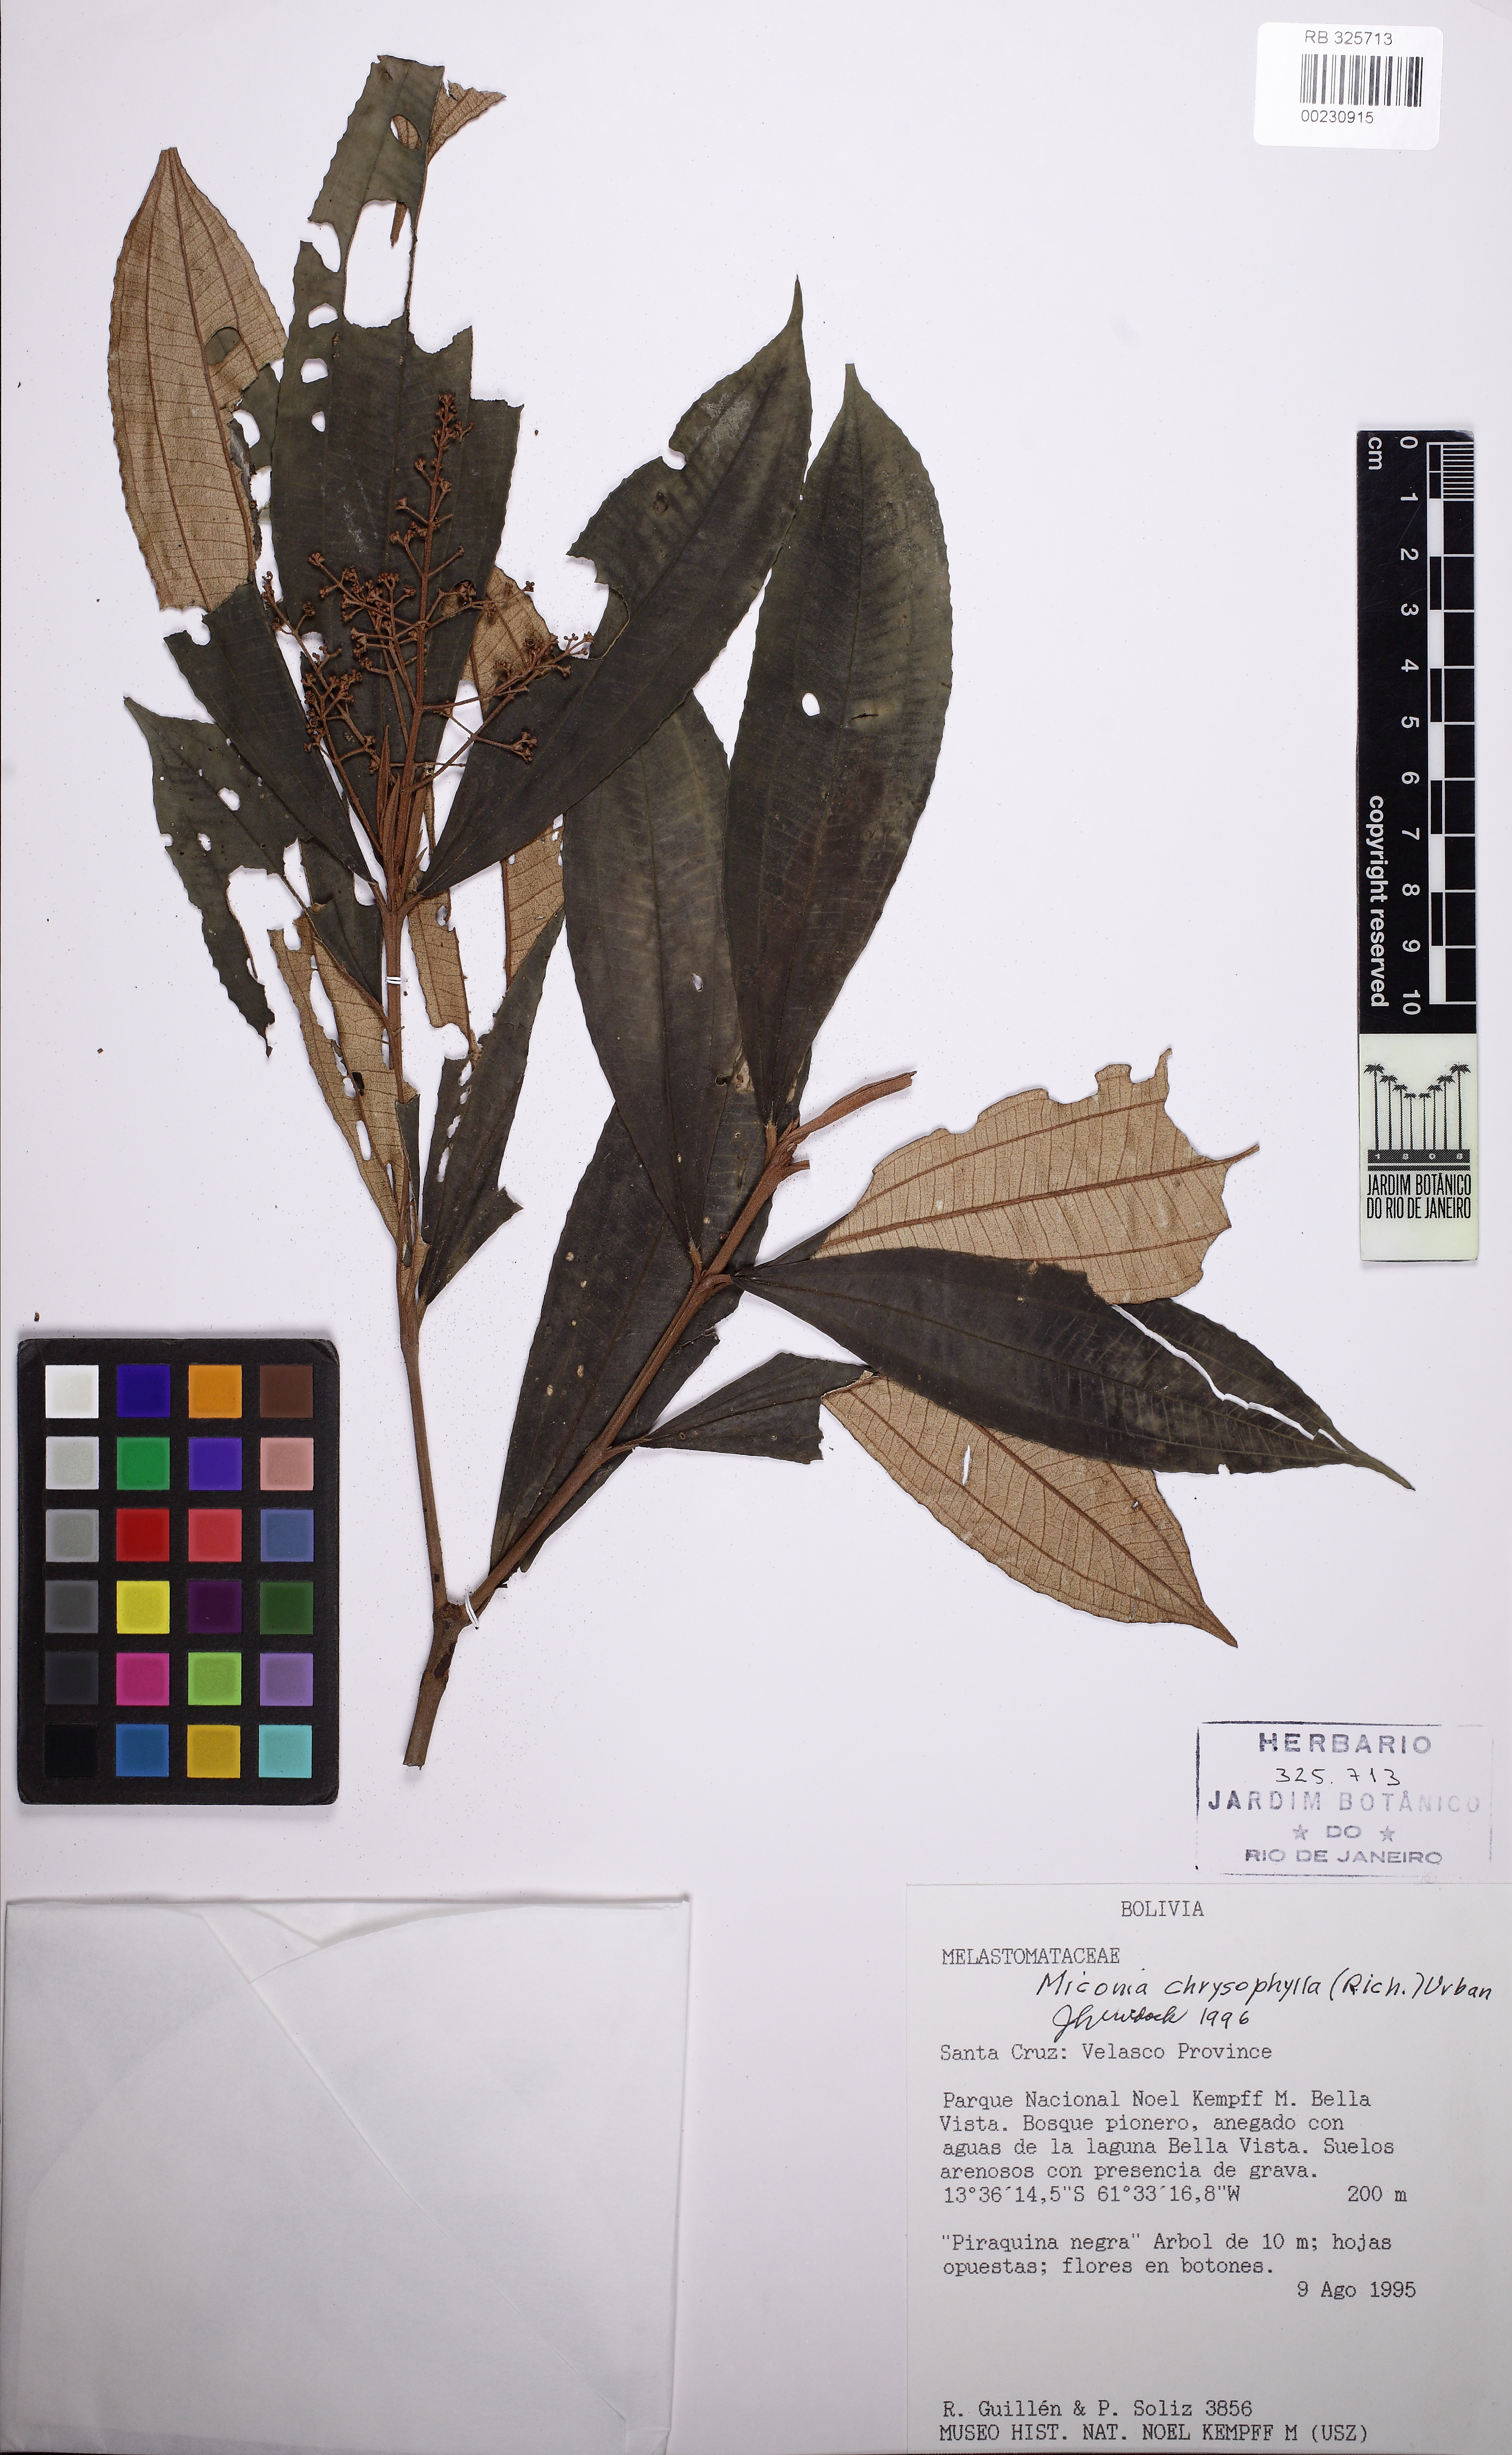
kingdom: Plantae
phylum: Tracheophyta
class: Magnoliopsida
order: Myrtales
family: Melastomataceae
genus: Miconia
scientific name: Miconia chrysophylla
